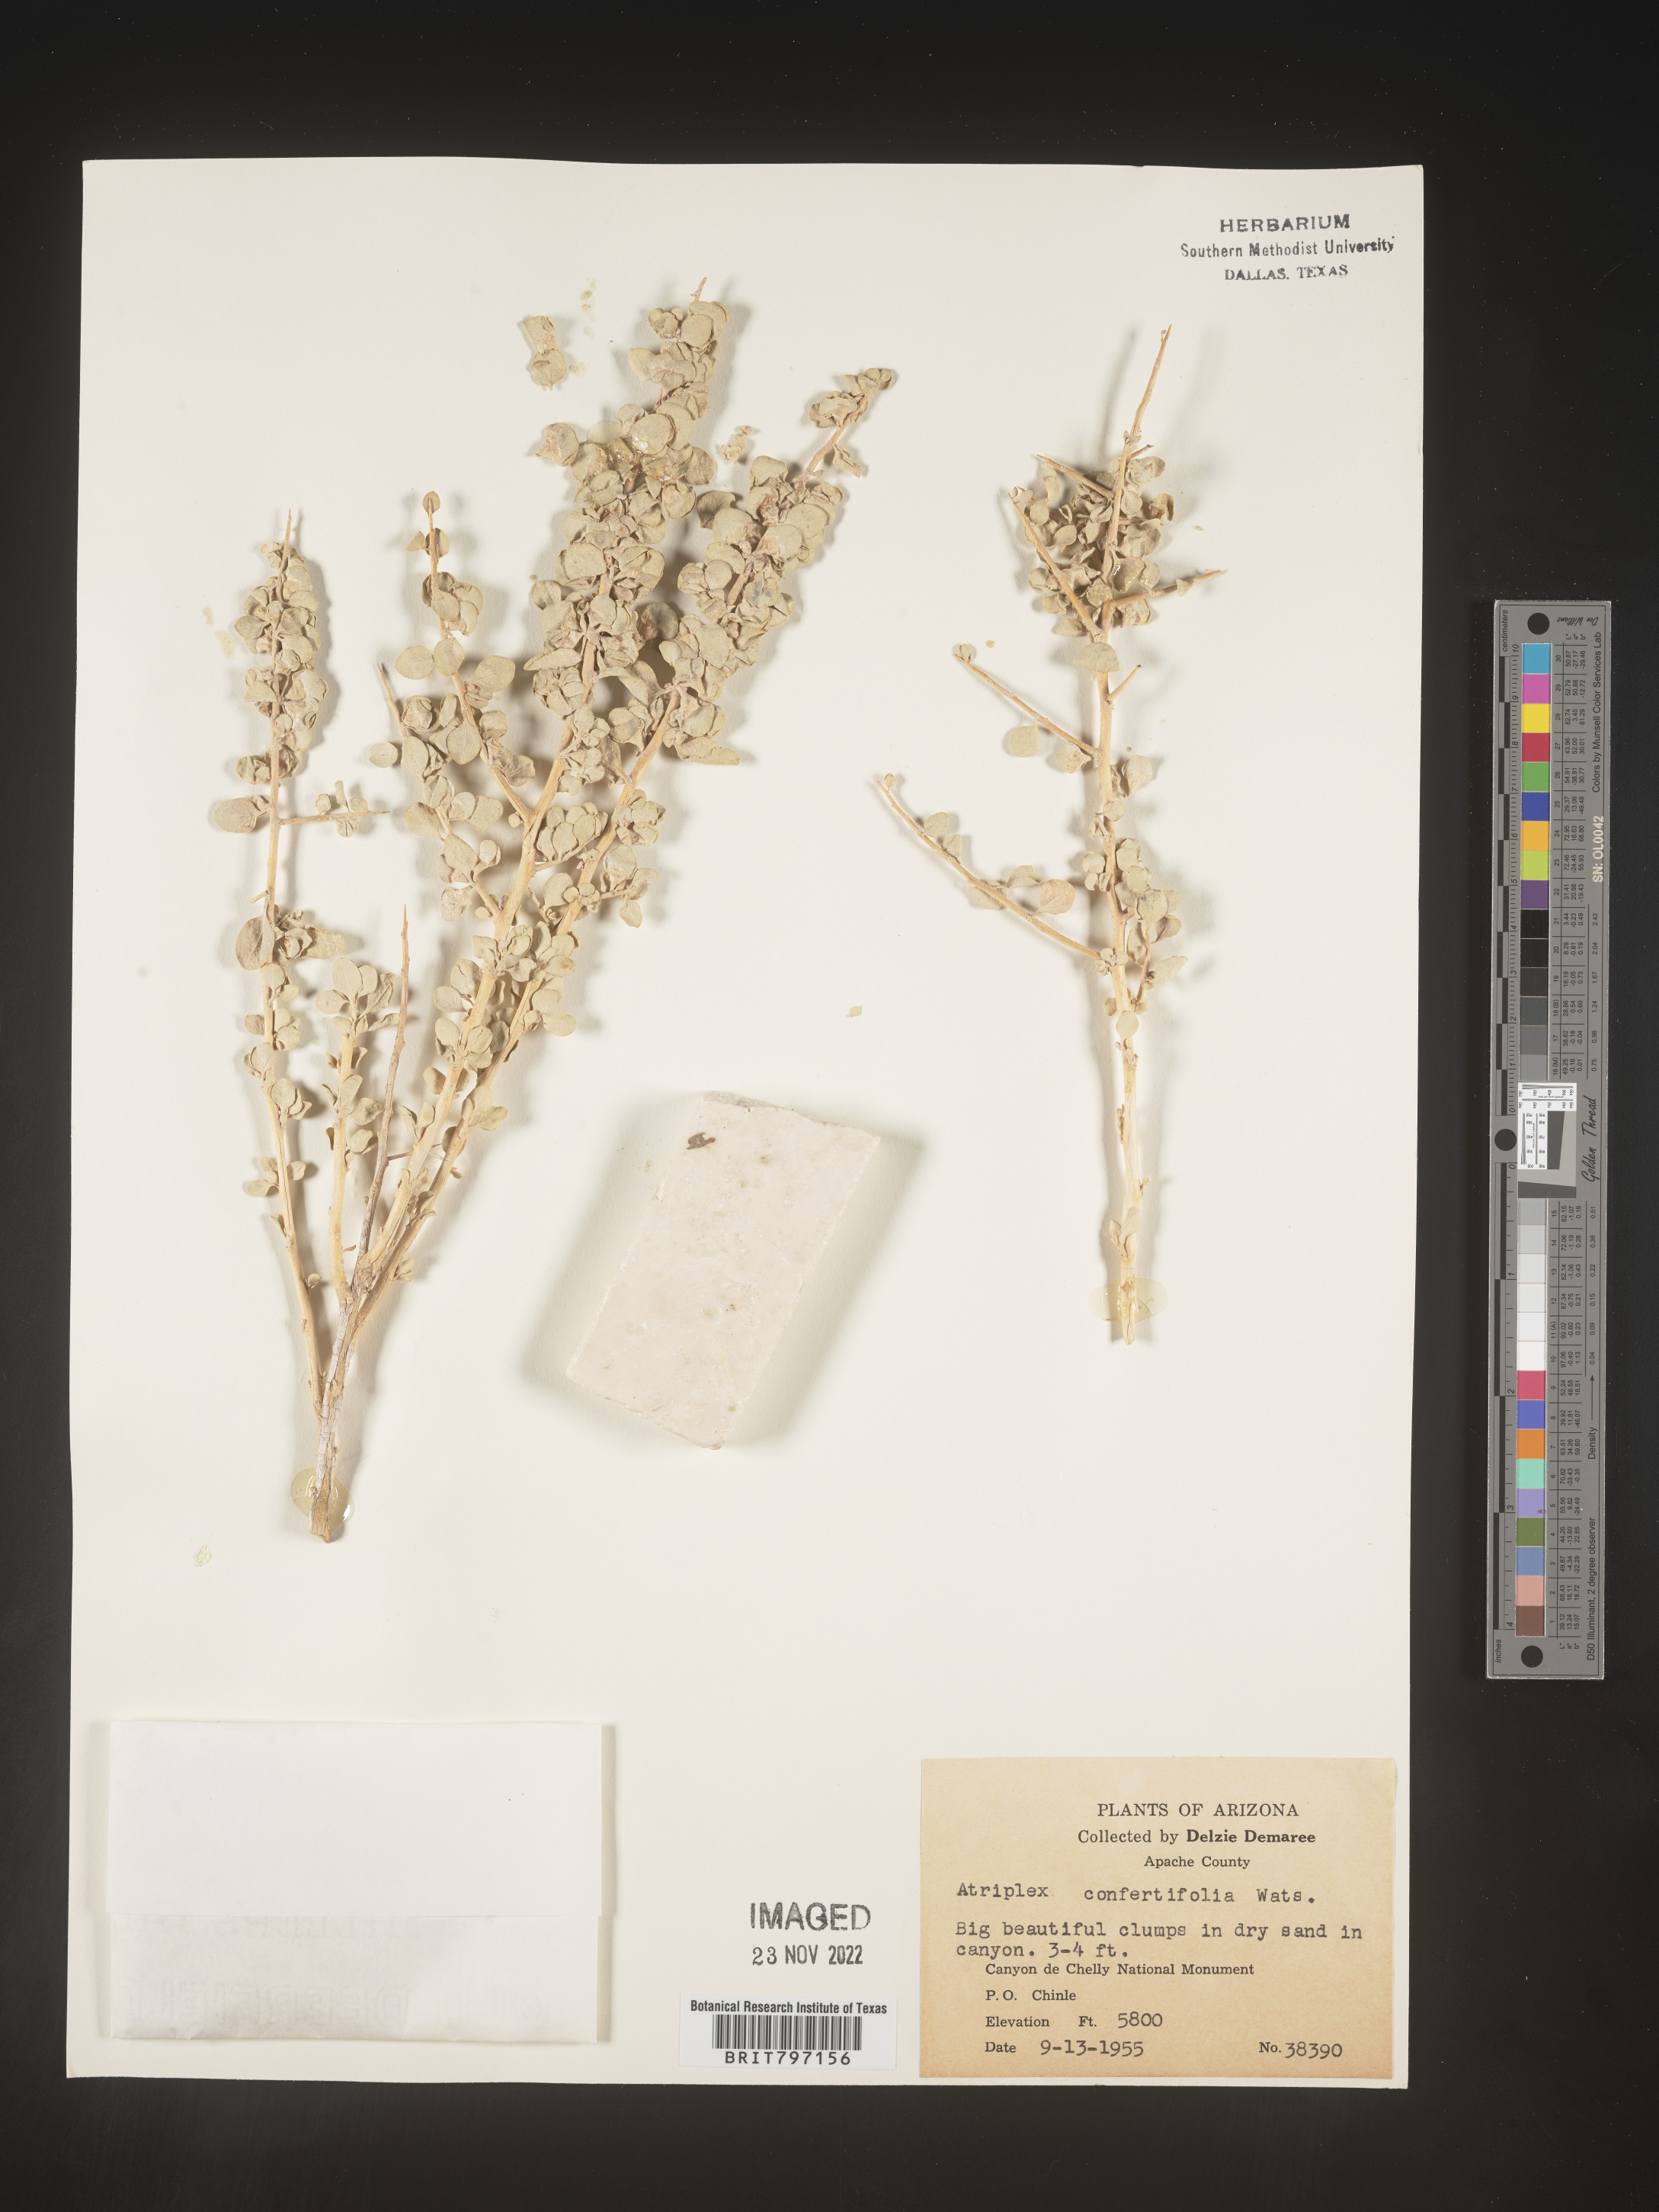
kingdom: Plantae
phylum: Tracheophyta
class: Magnoliopsida
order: Caryophyllales
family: Amaranthaceae
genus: Atriplex
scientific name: Atriplex confertifolia
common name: Shadscale
